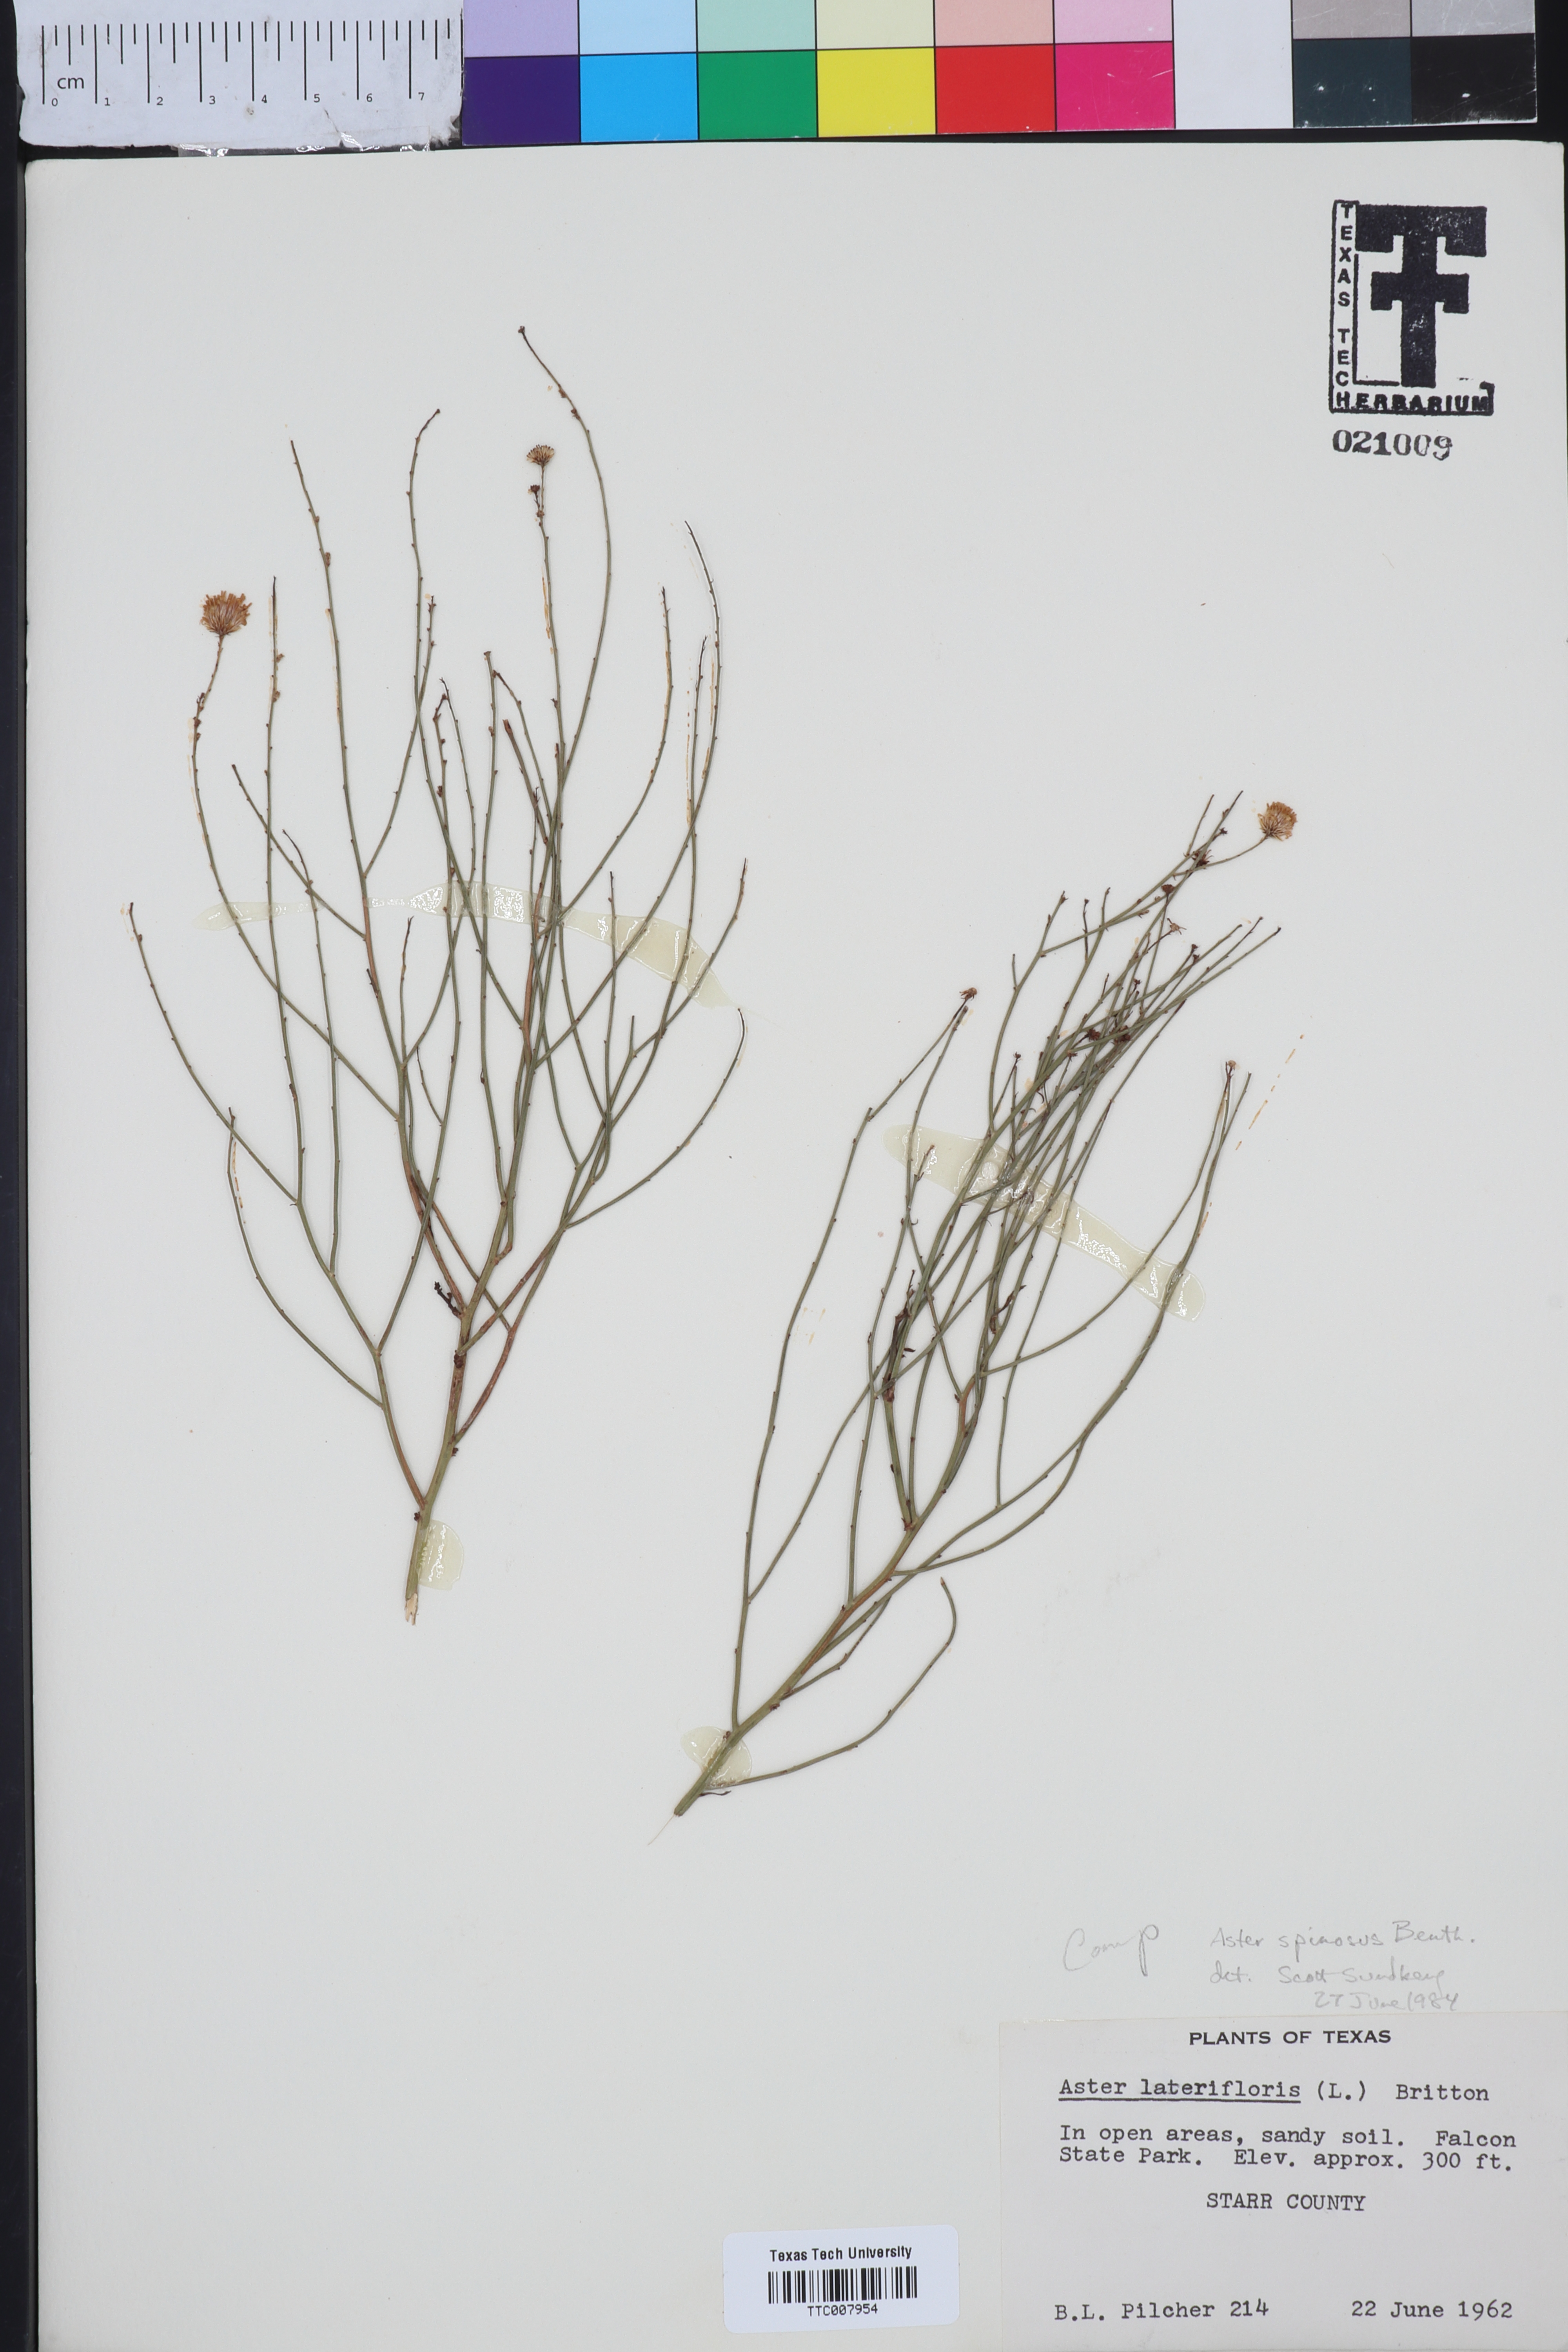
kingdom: Plantae
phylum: Tracheophyta
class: Magnoliopsida
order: Asterales
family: Asteraceae
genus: Chloracantha
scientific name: Chloracantha spinosa
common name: Mexican devilweed
